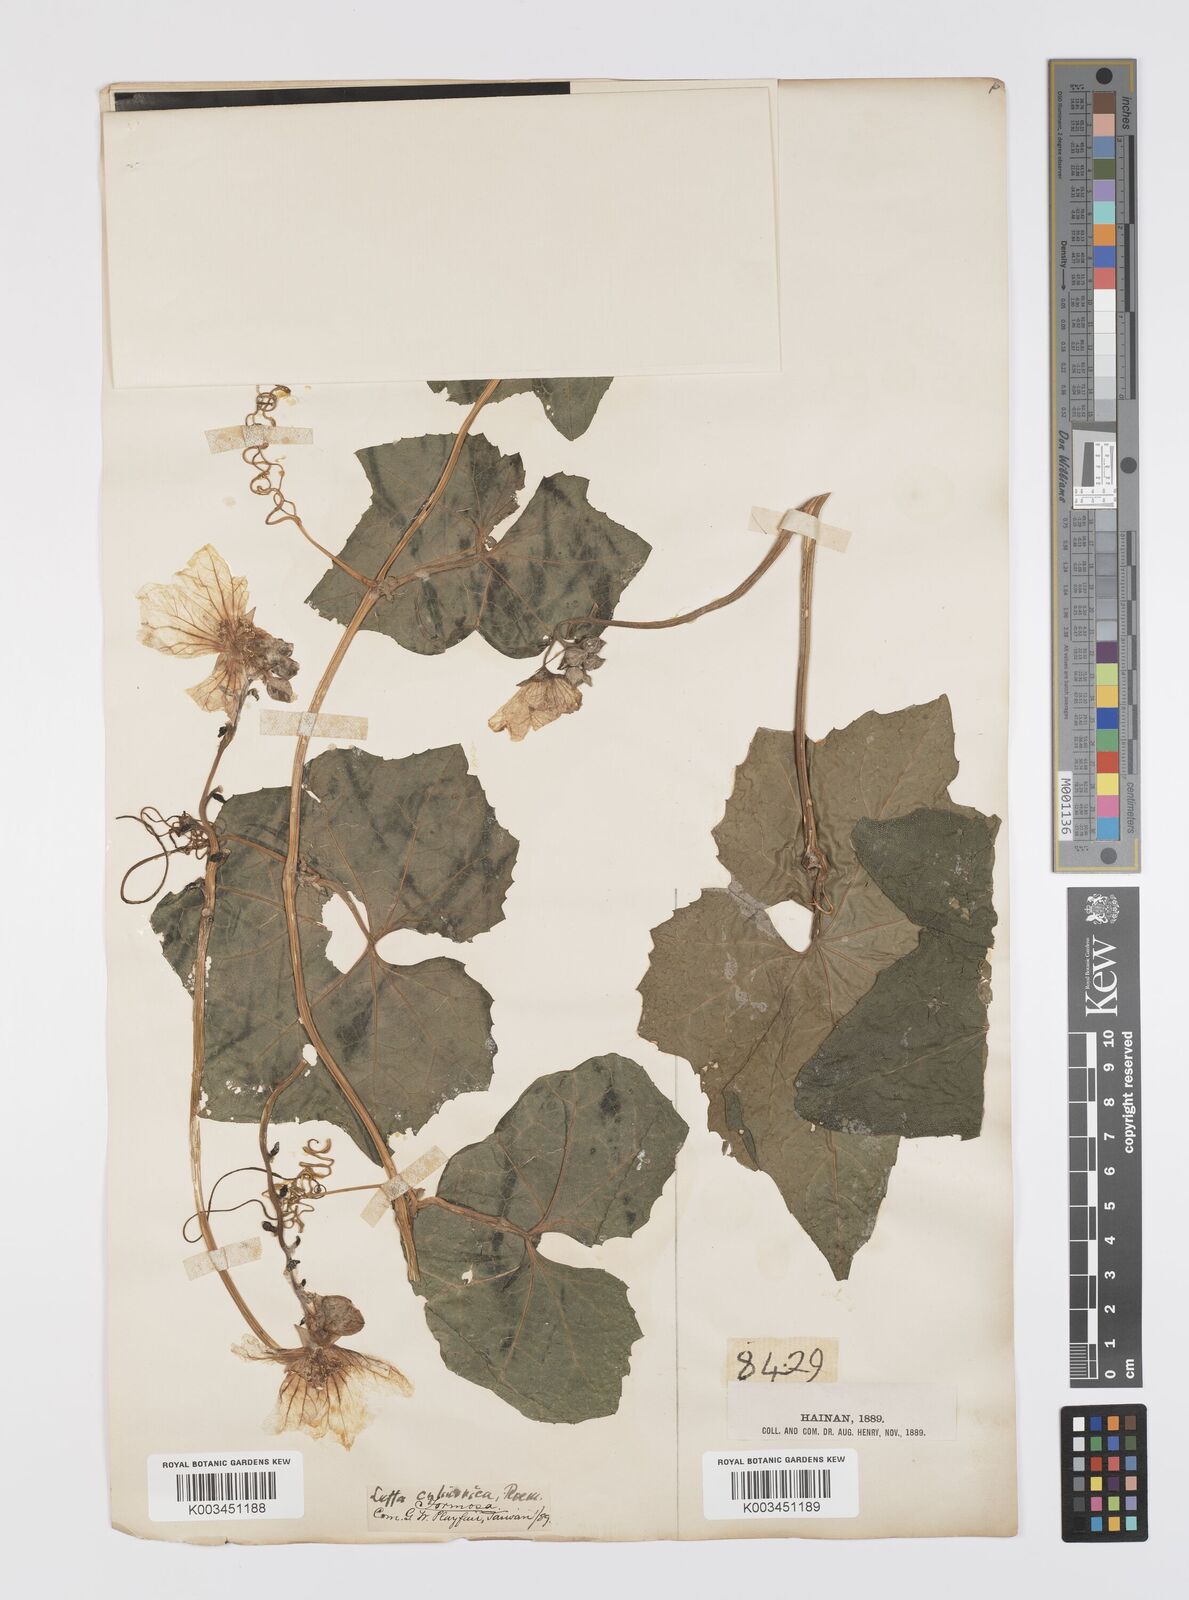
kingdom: Plantae
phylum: Tracheophyta
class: Magnoliopsida
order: Cucurbitales
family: Cucurbitaceae
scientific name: Cucurbitaceae
